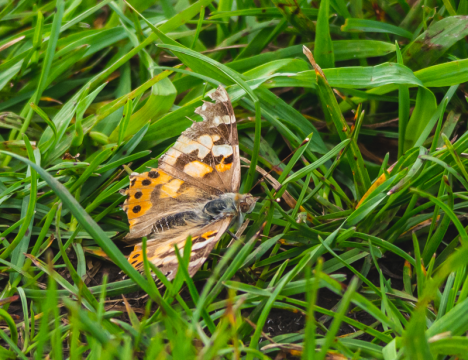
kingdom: Animalia
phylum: Arthropoda
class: Insecta
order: Lepidoptera
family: Nymphalidae
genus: Vanessa
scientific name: Vanessa cardui
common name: Painted Lady
